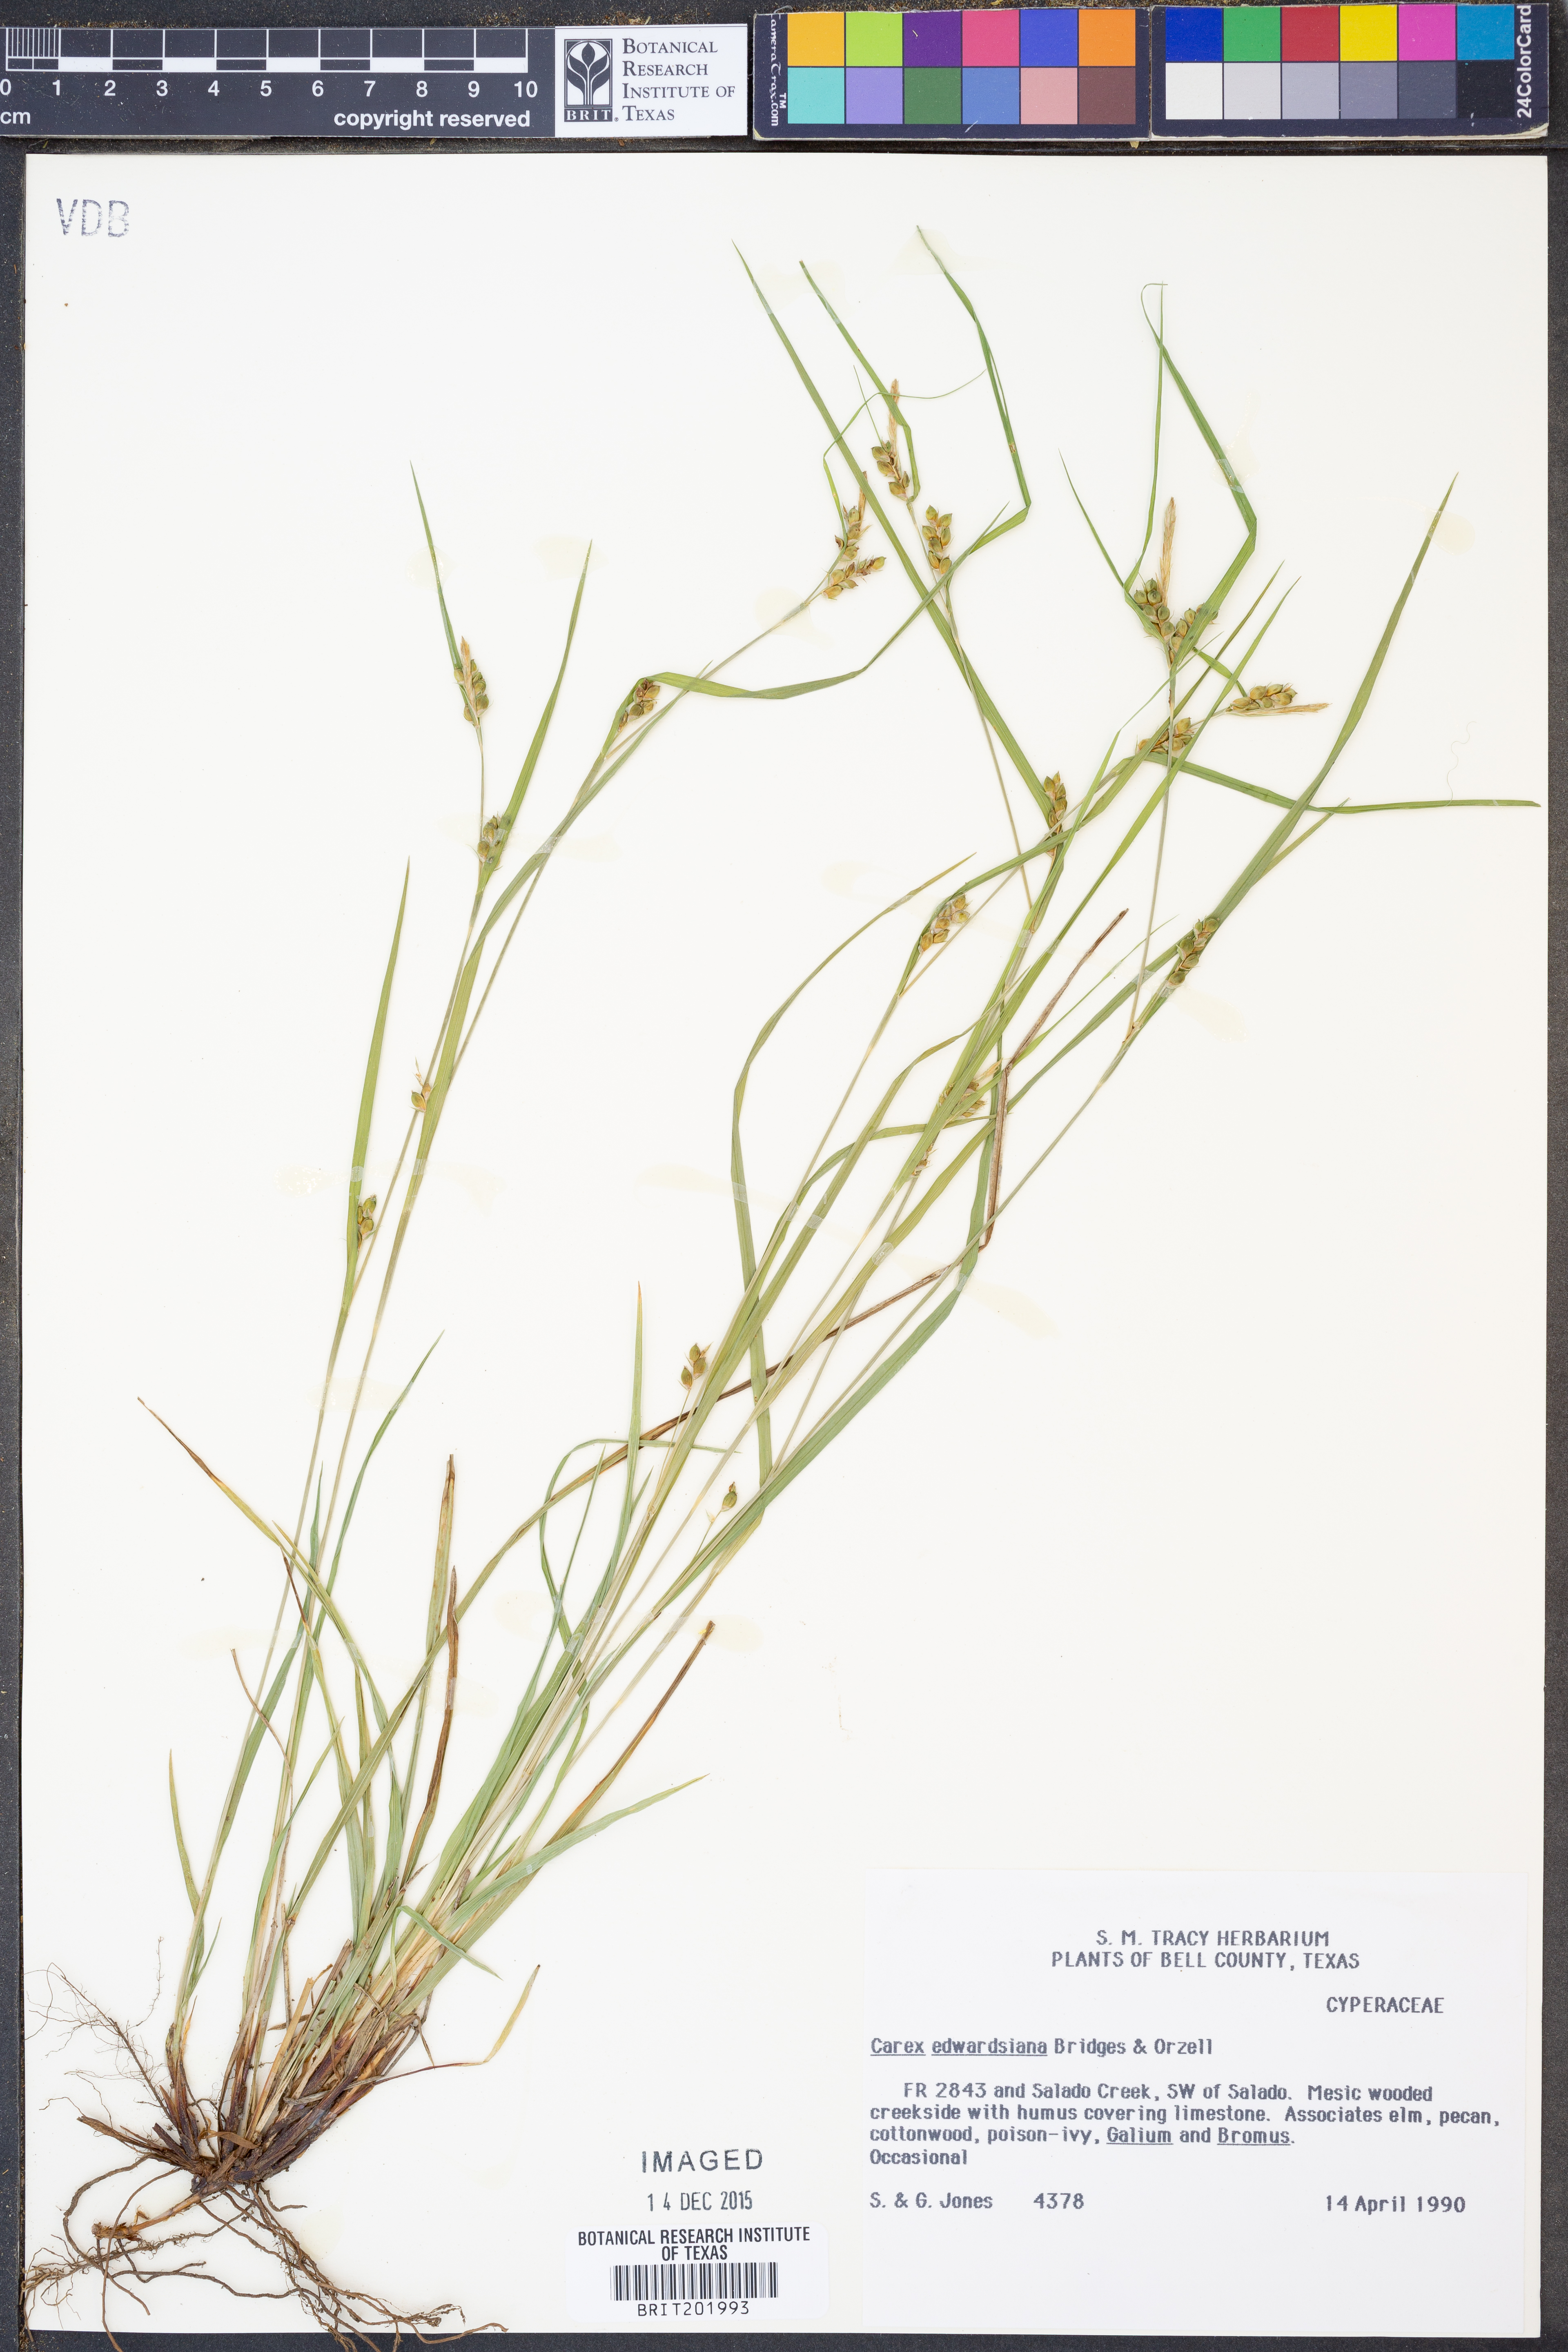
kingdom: Plantae
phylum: Tracheophyta
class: Liliopsida
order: Poales
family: Cyperaceae
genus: Carex
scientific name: Carex edwardsiana
